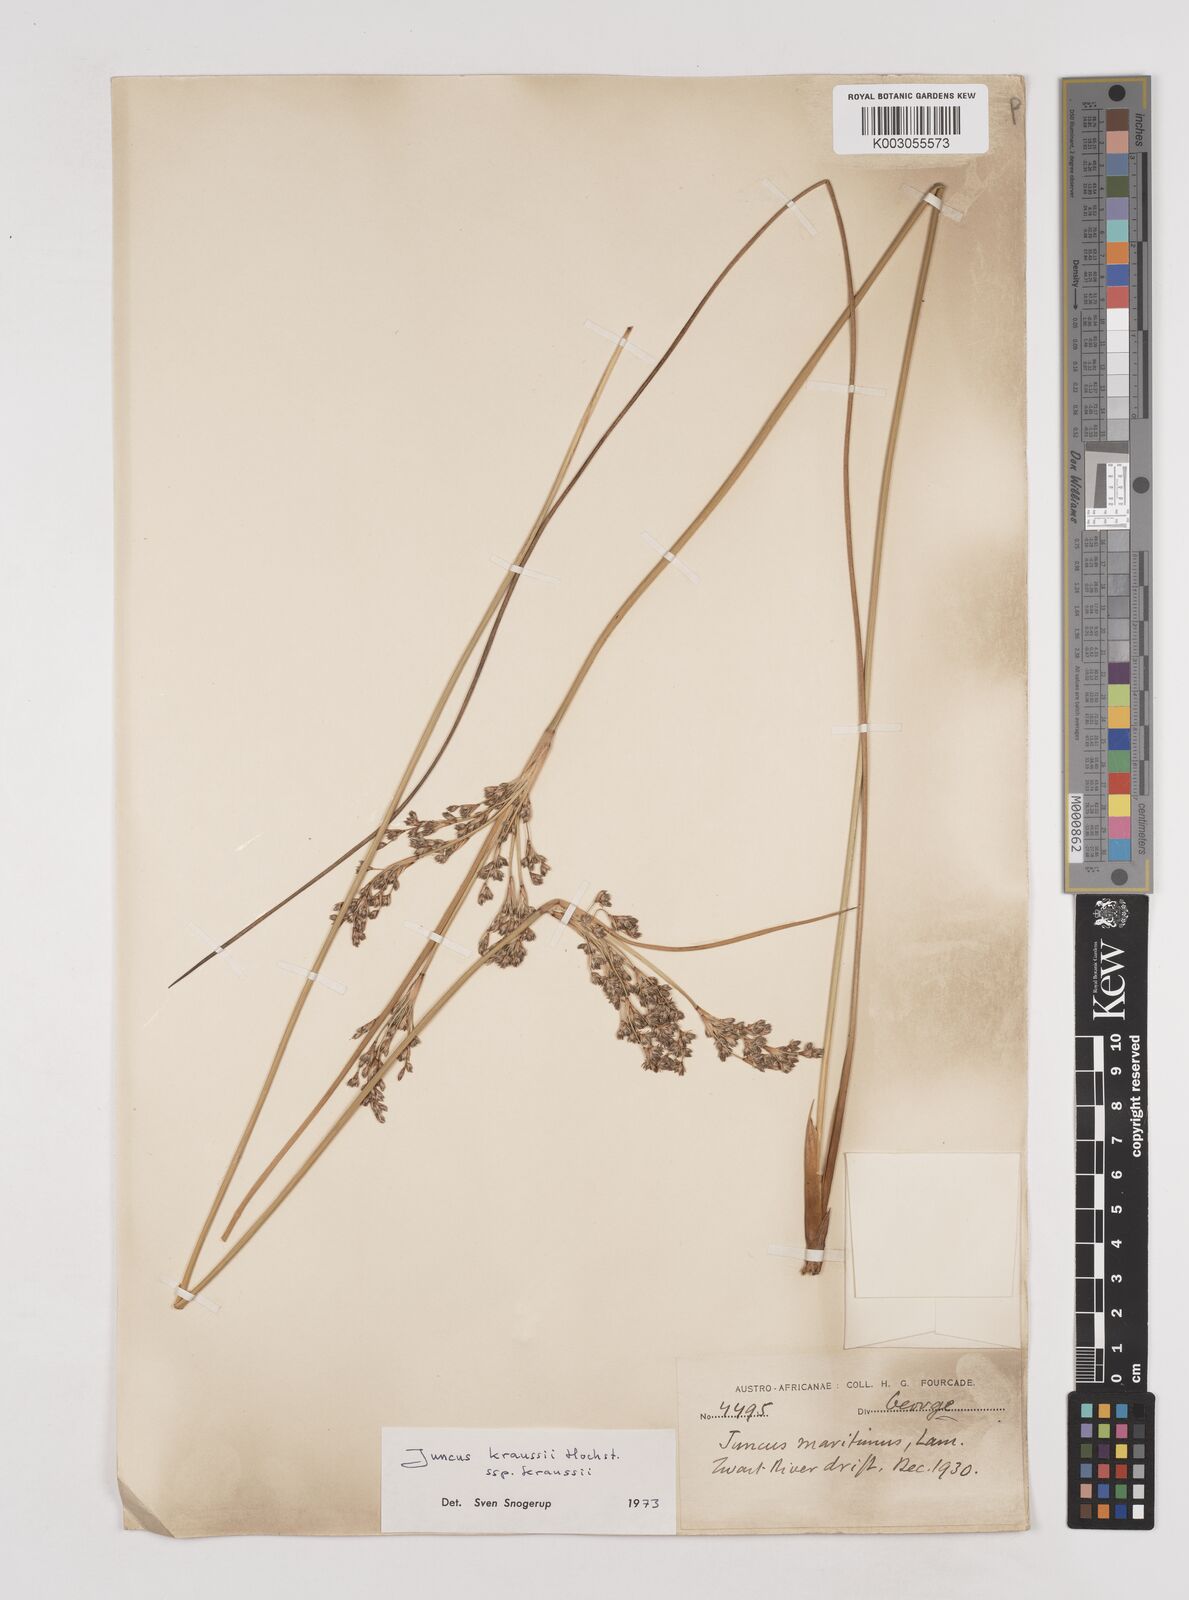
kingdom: Plantae
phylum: Tracheophyta
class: Liliopsida
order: Poales
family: Juncaceae
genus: Juncus
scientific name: Juncus kraussii
